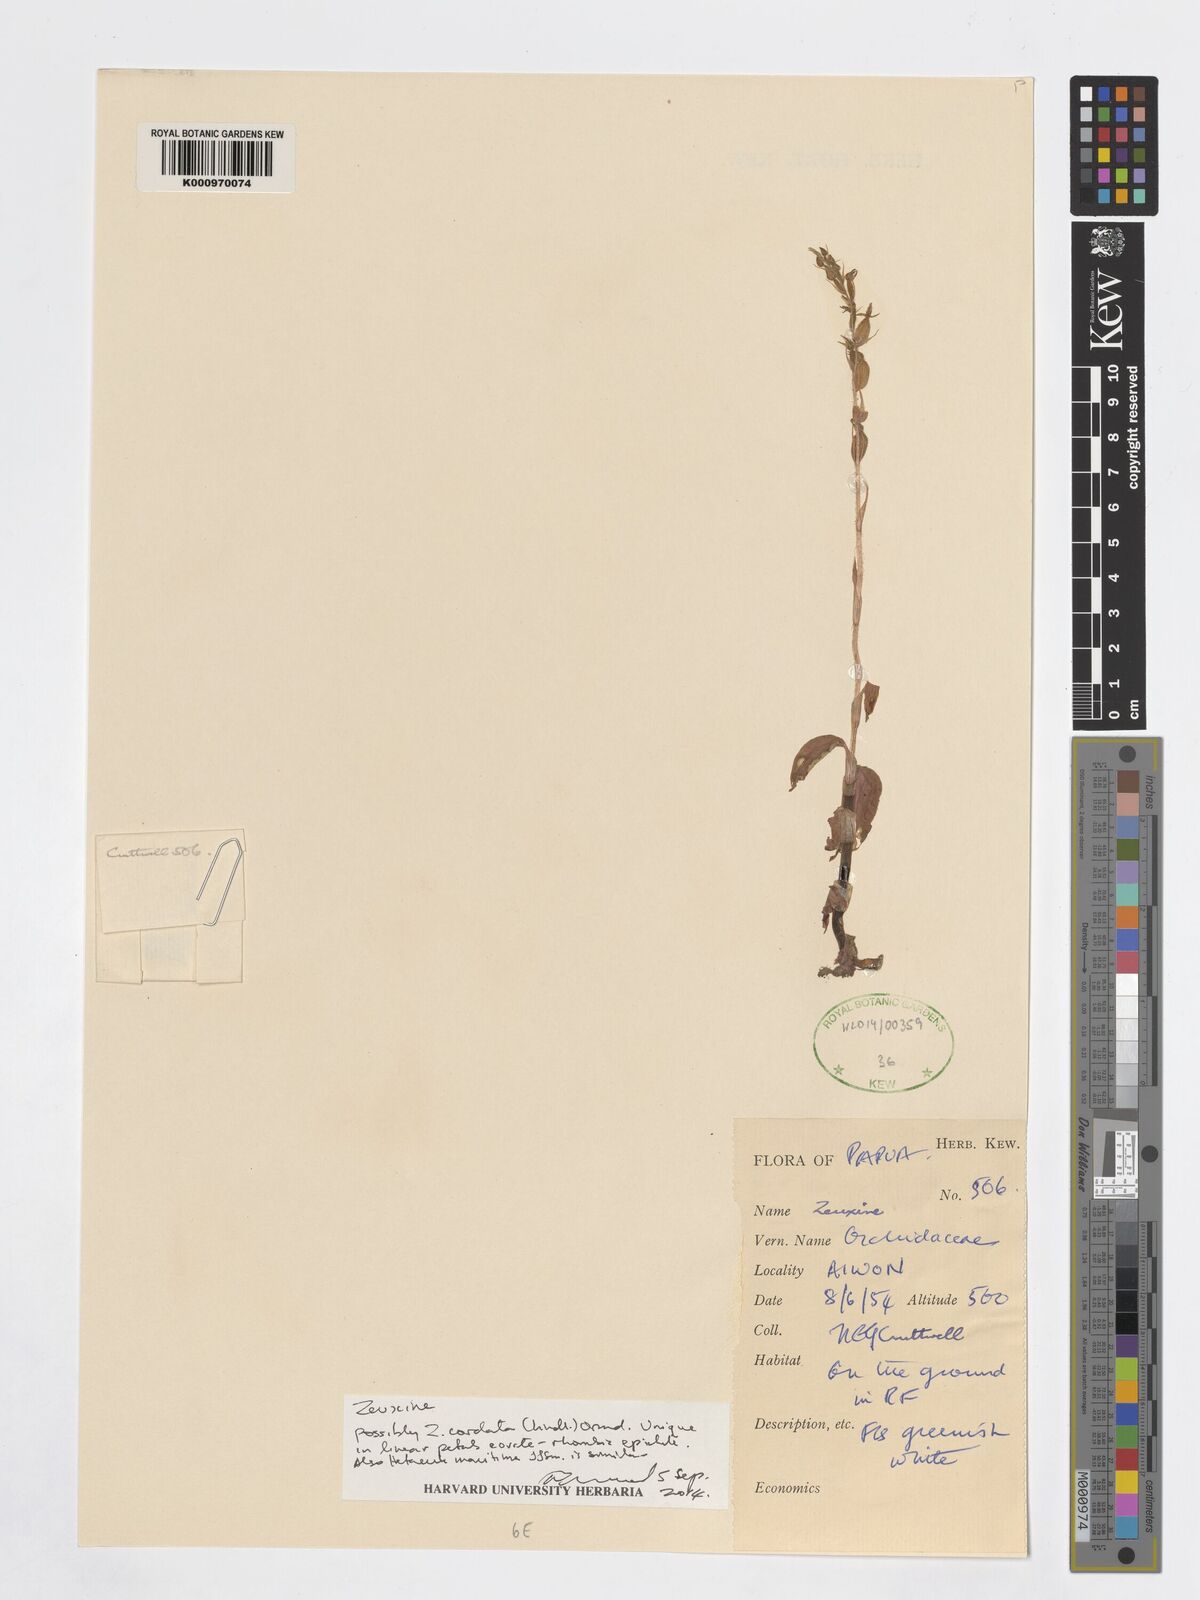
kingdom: Plantae
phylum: Tracheophyta
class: Liliopsida
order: Asparagales
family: Orchidaceae
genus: Zeuxine
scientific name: Zeuxine cordata
